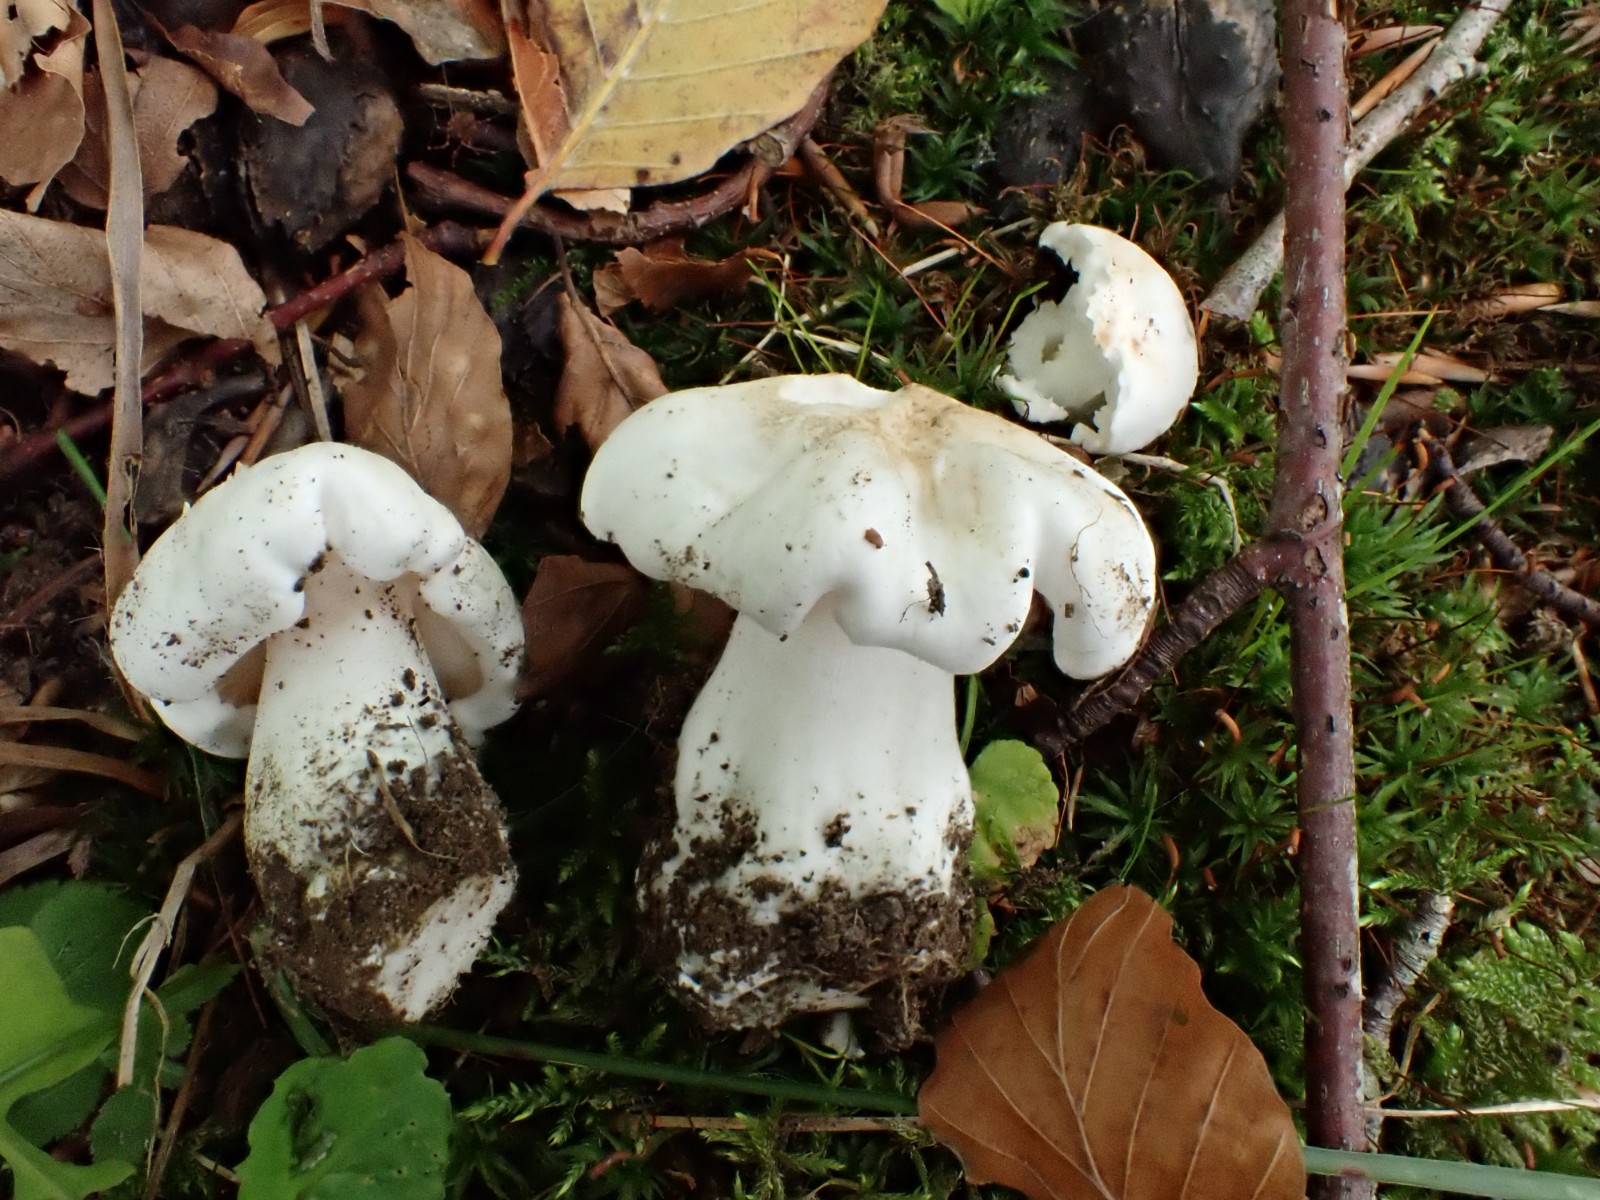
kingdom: Fungi
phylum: Basidiomycota
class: Agaricomycetes
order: Agaricales
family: Tricholomataceae
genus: Tricholoma
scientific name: Tricholoma columbetta
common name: silke-ridderhat
